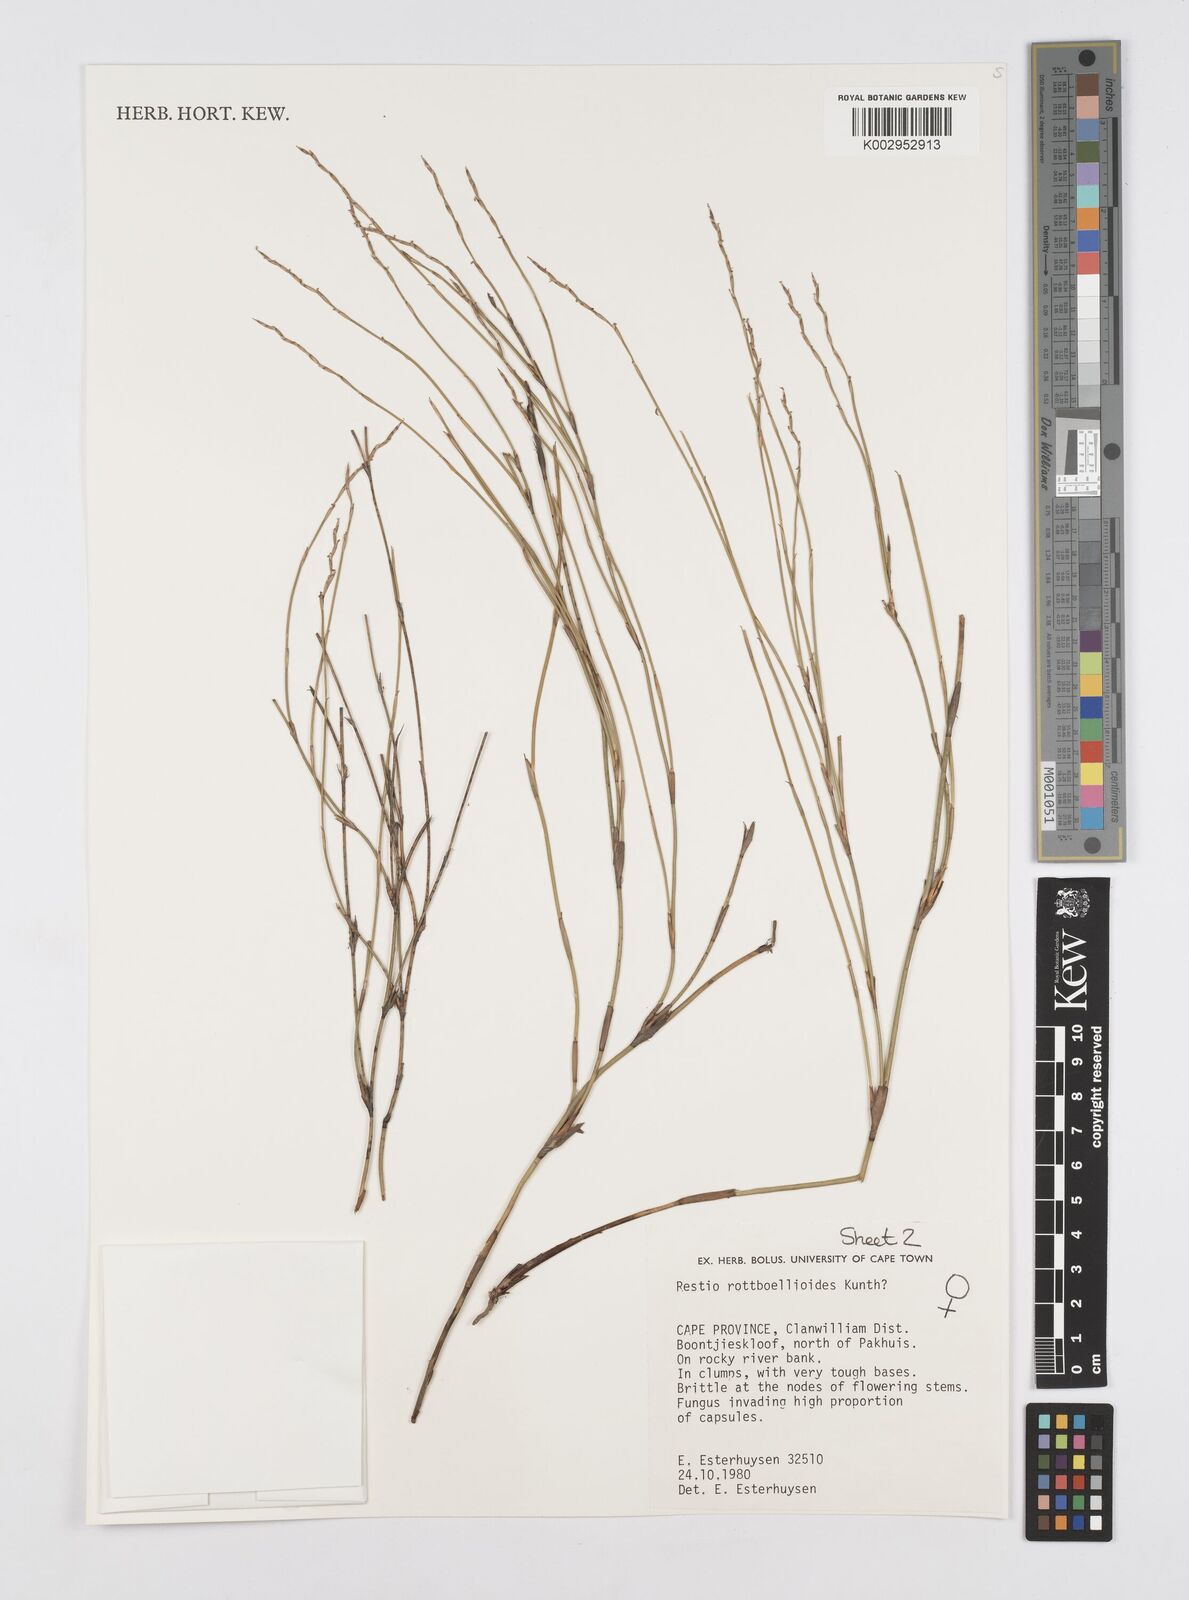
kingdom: Plantae
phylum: Tracheophyta
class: Liliopsida
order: Poales
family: Restionaceae
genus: Restio
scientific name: Restio rottboellioides
